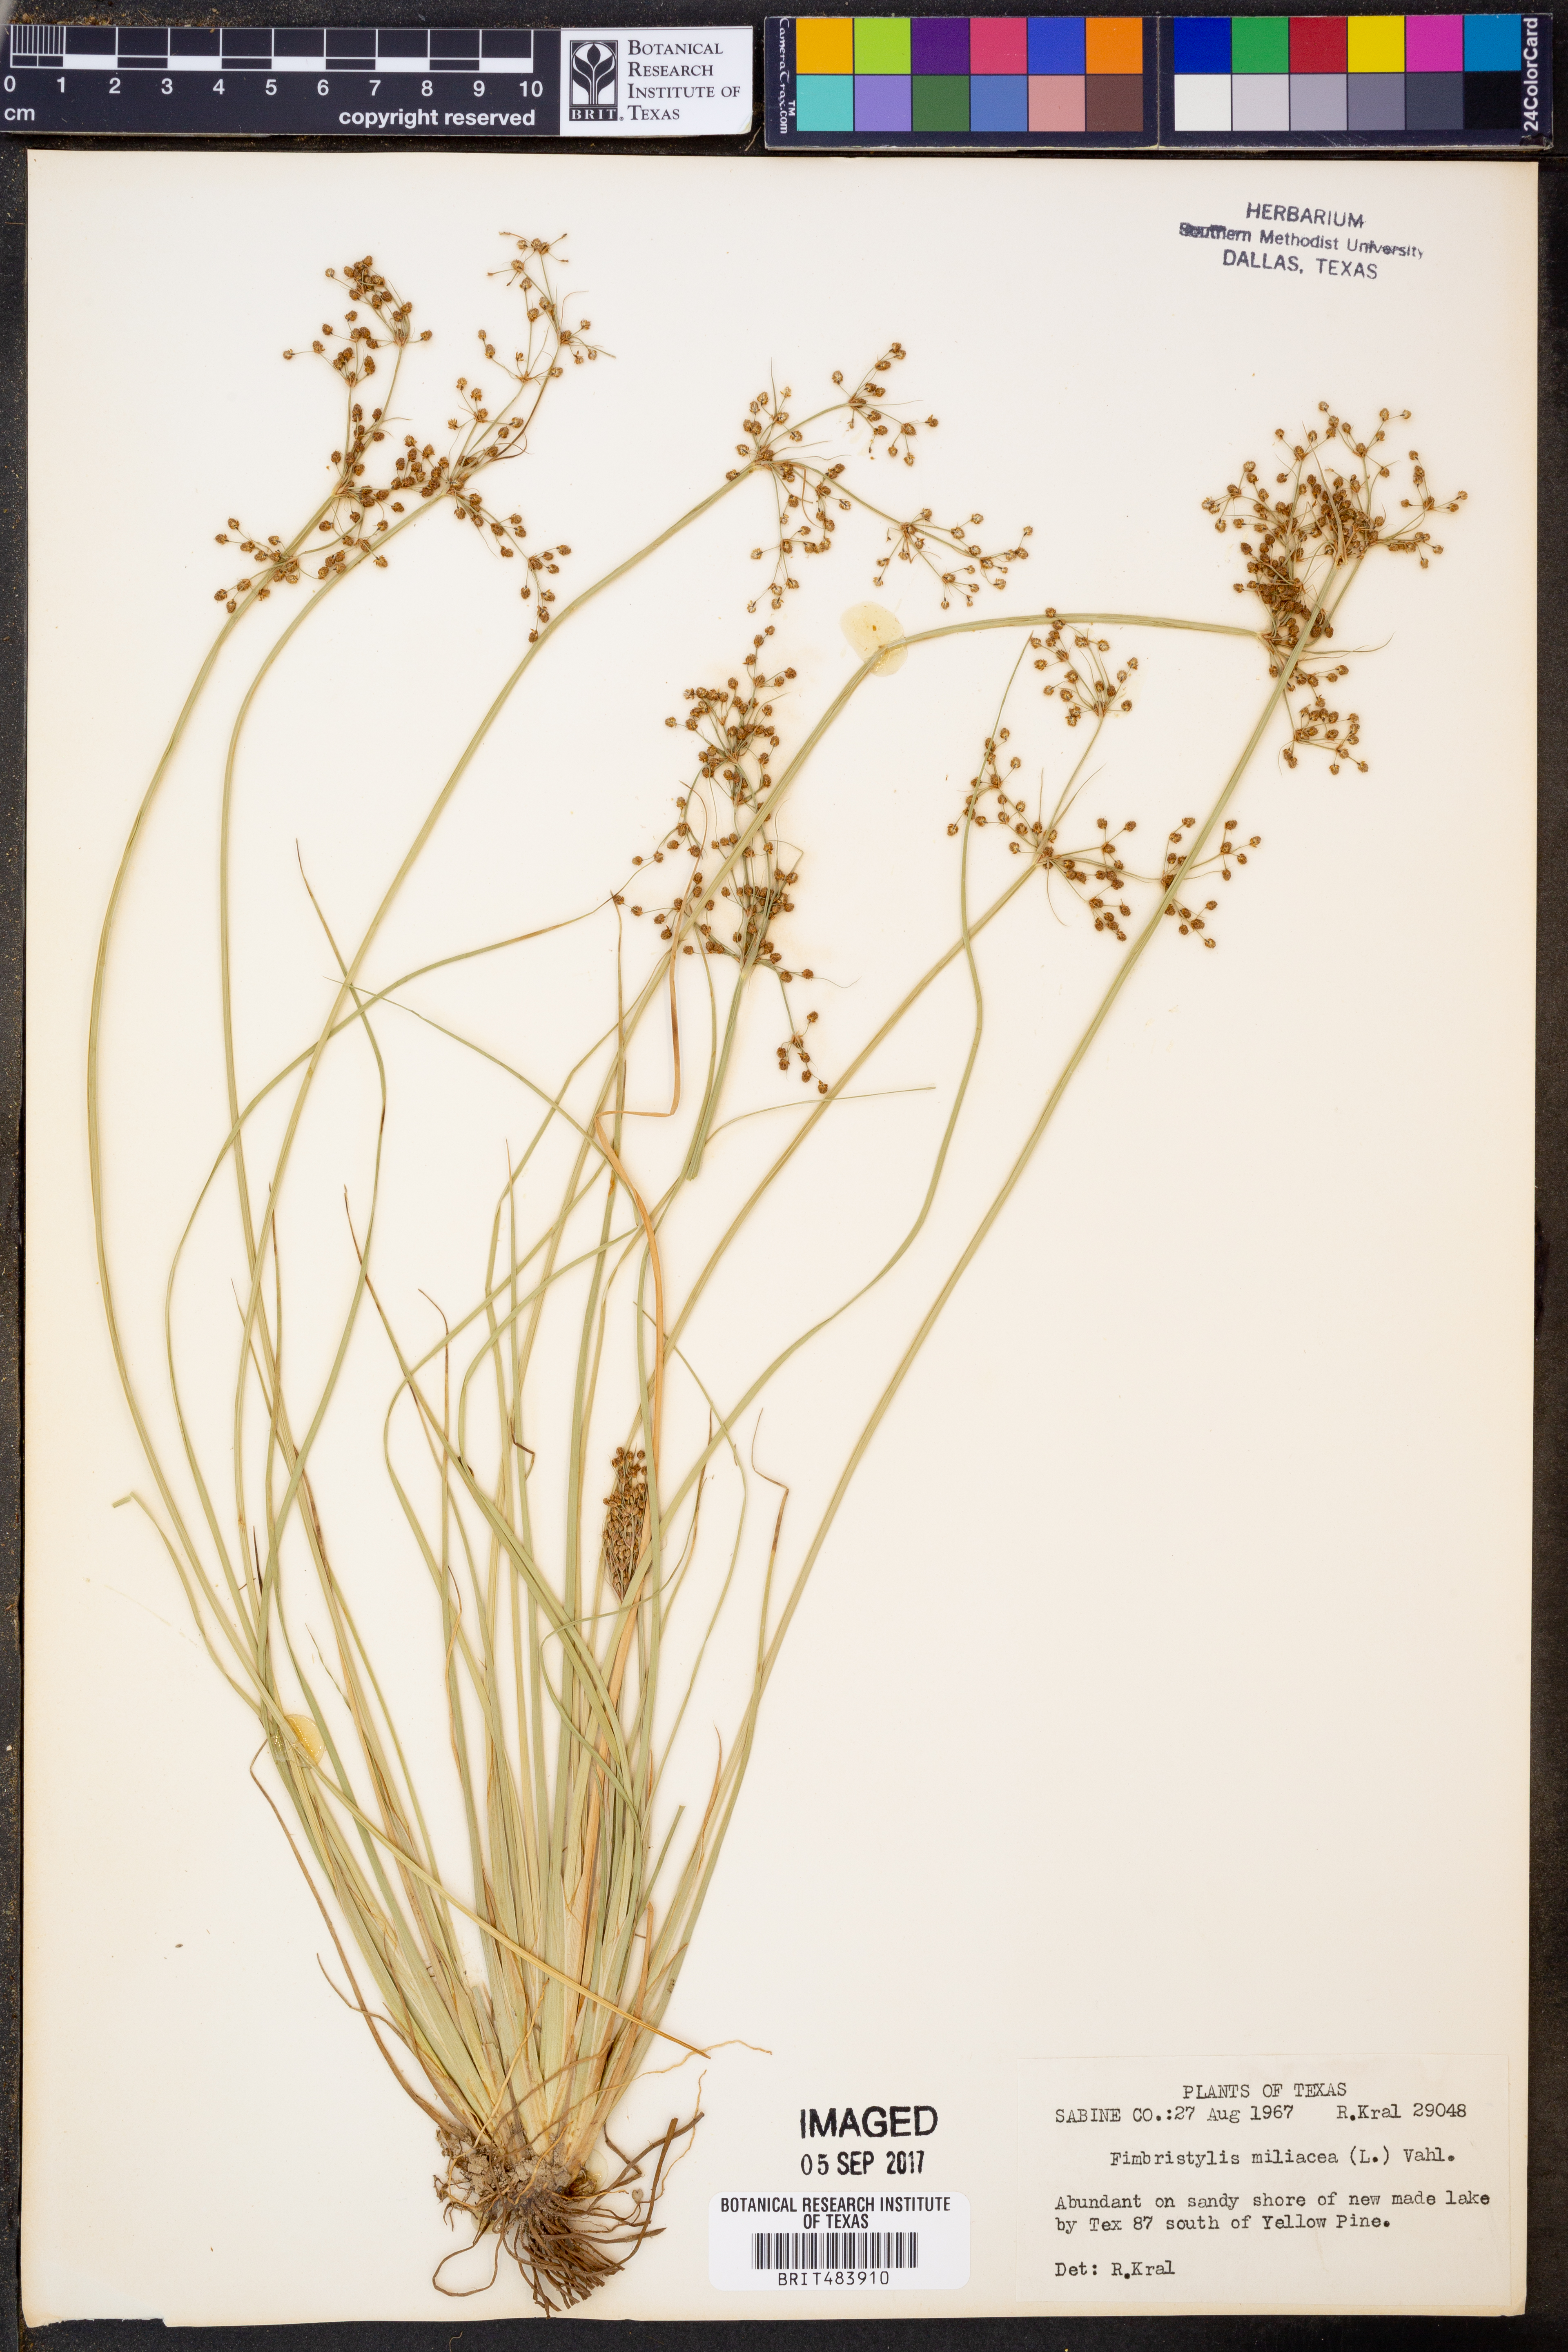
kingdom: Plantae
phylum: Tracheophyta
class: Liliopsida
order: Poales
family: Cyperaceae
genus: Fimbristylis
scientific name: Fimbristylis quinquangularis
